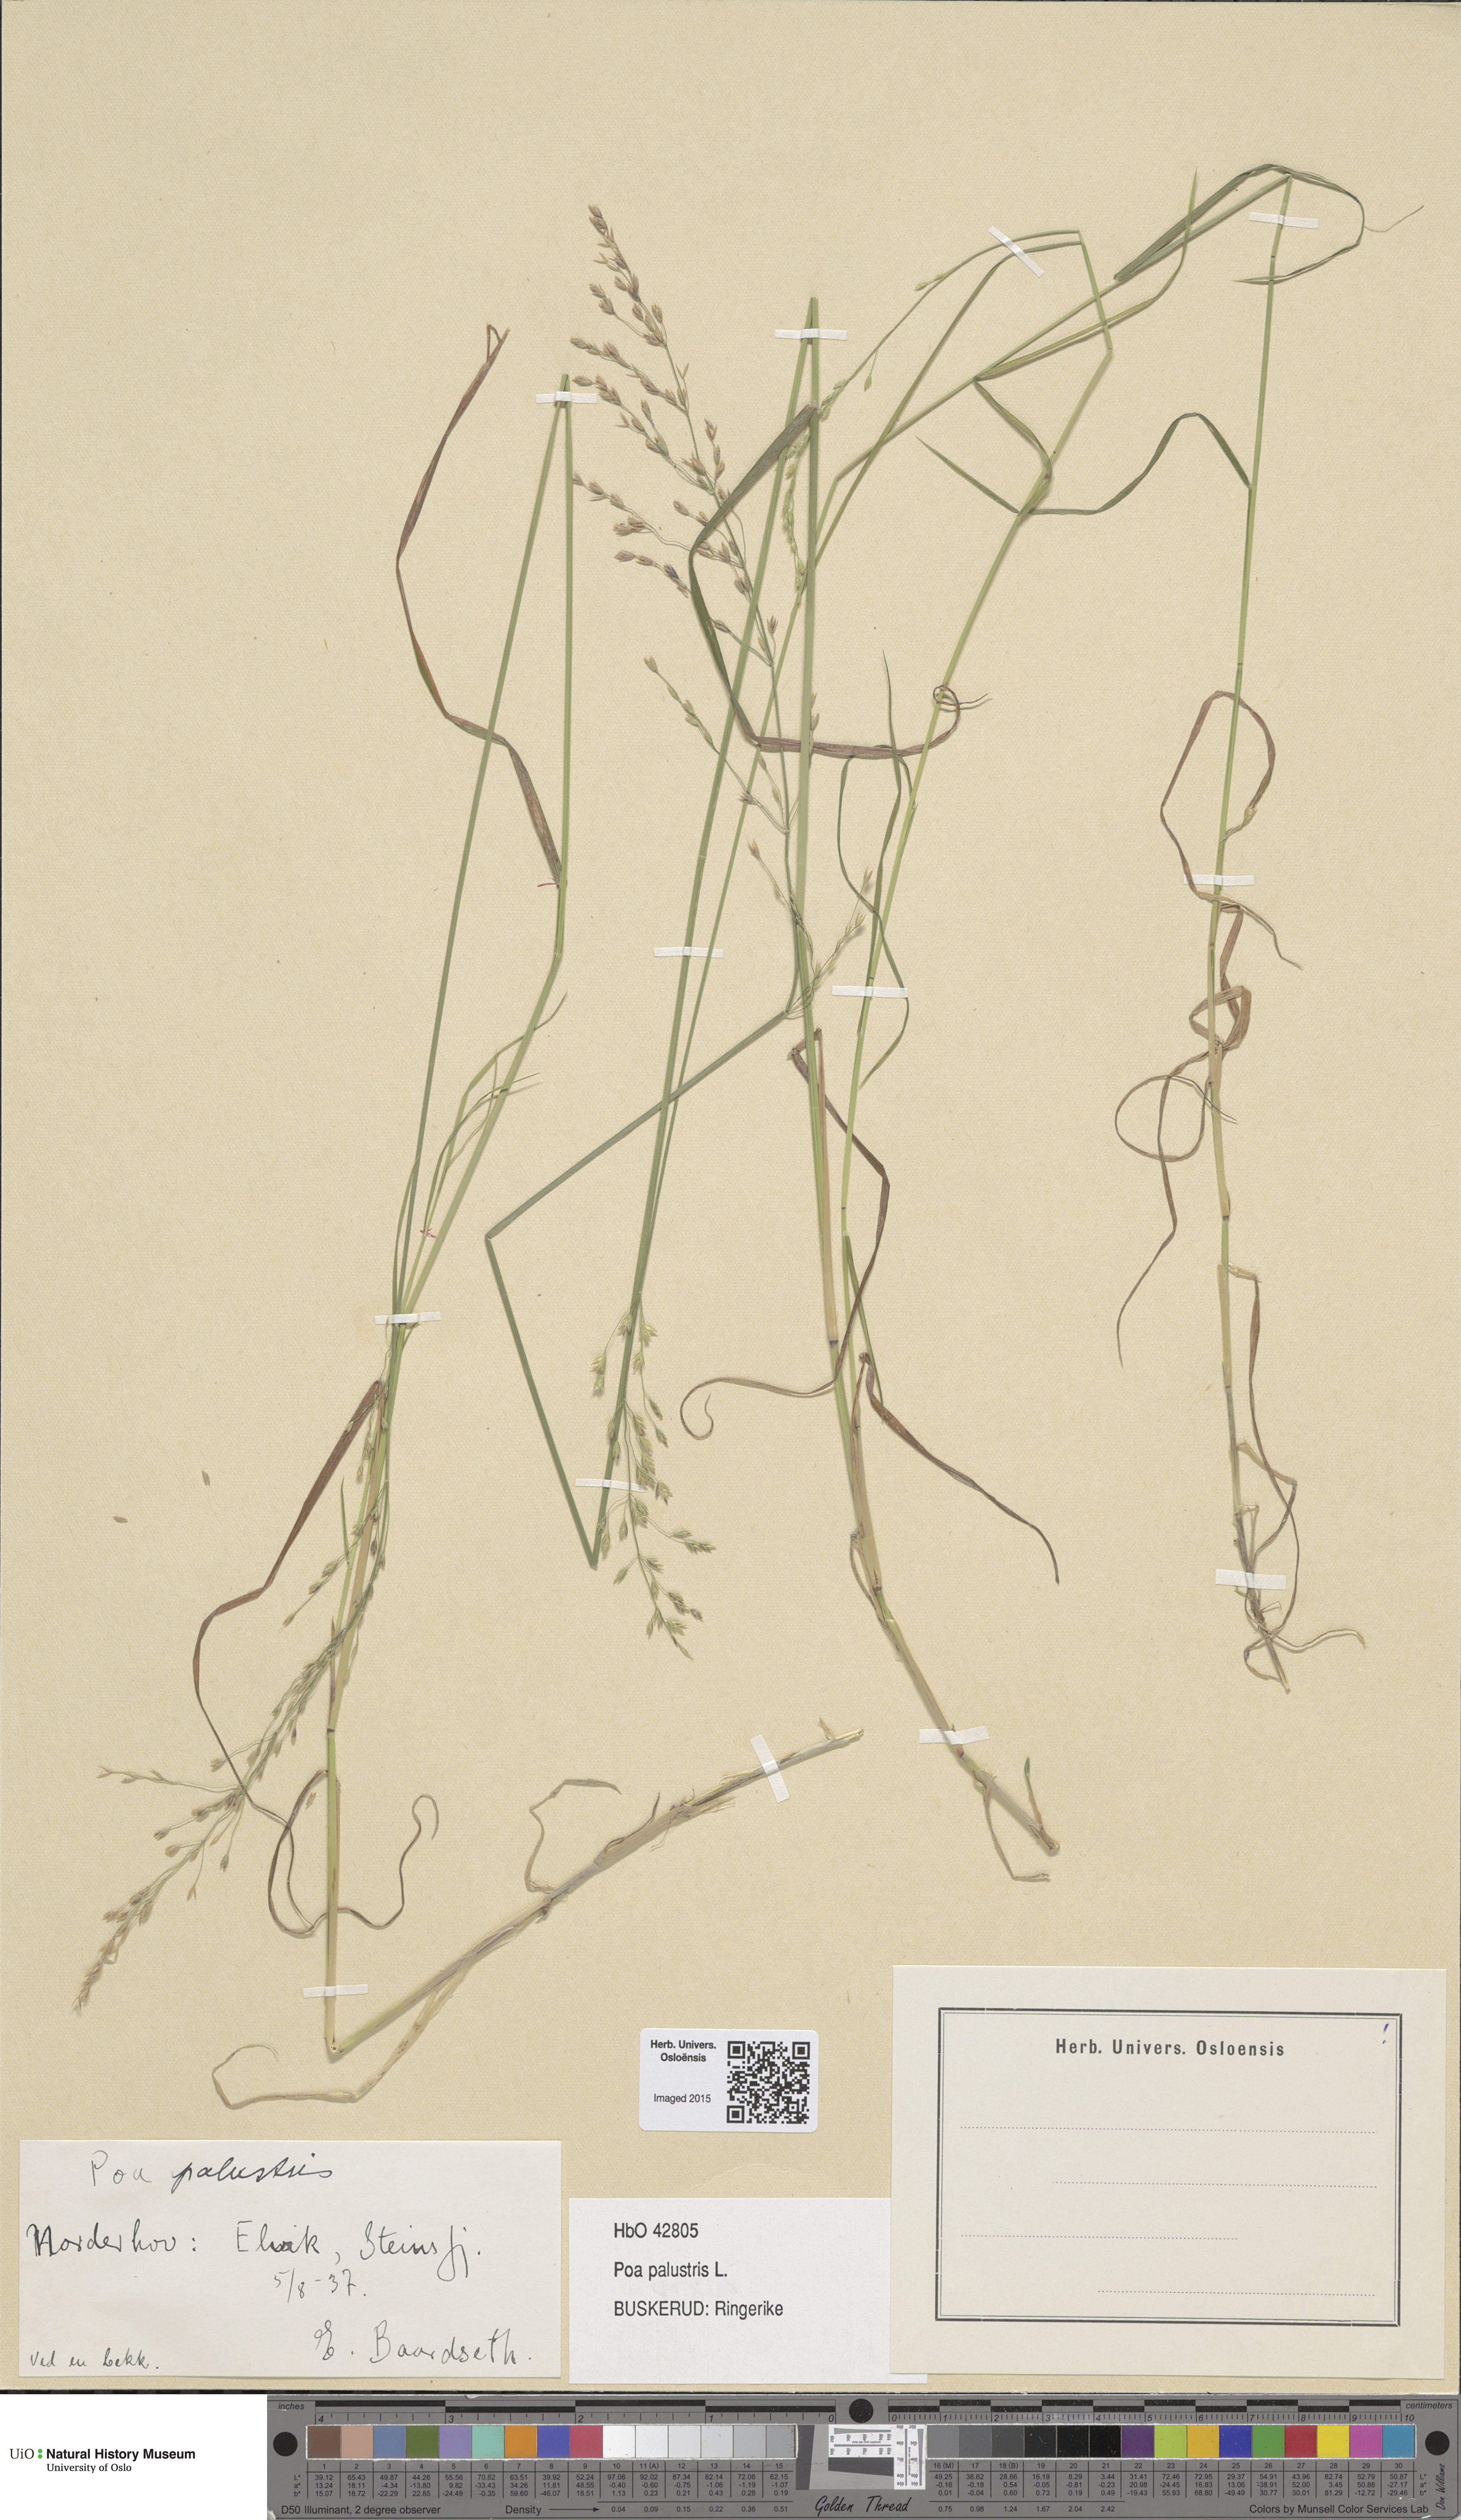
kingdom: Plantae
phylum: Tracheophyta
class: Liliopsida
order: Poales
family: Poaceae
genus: Poa
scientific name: Poa palustris
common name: Swamp meadow-grass
